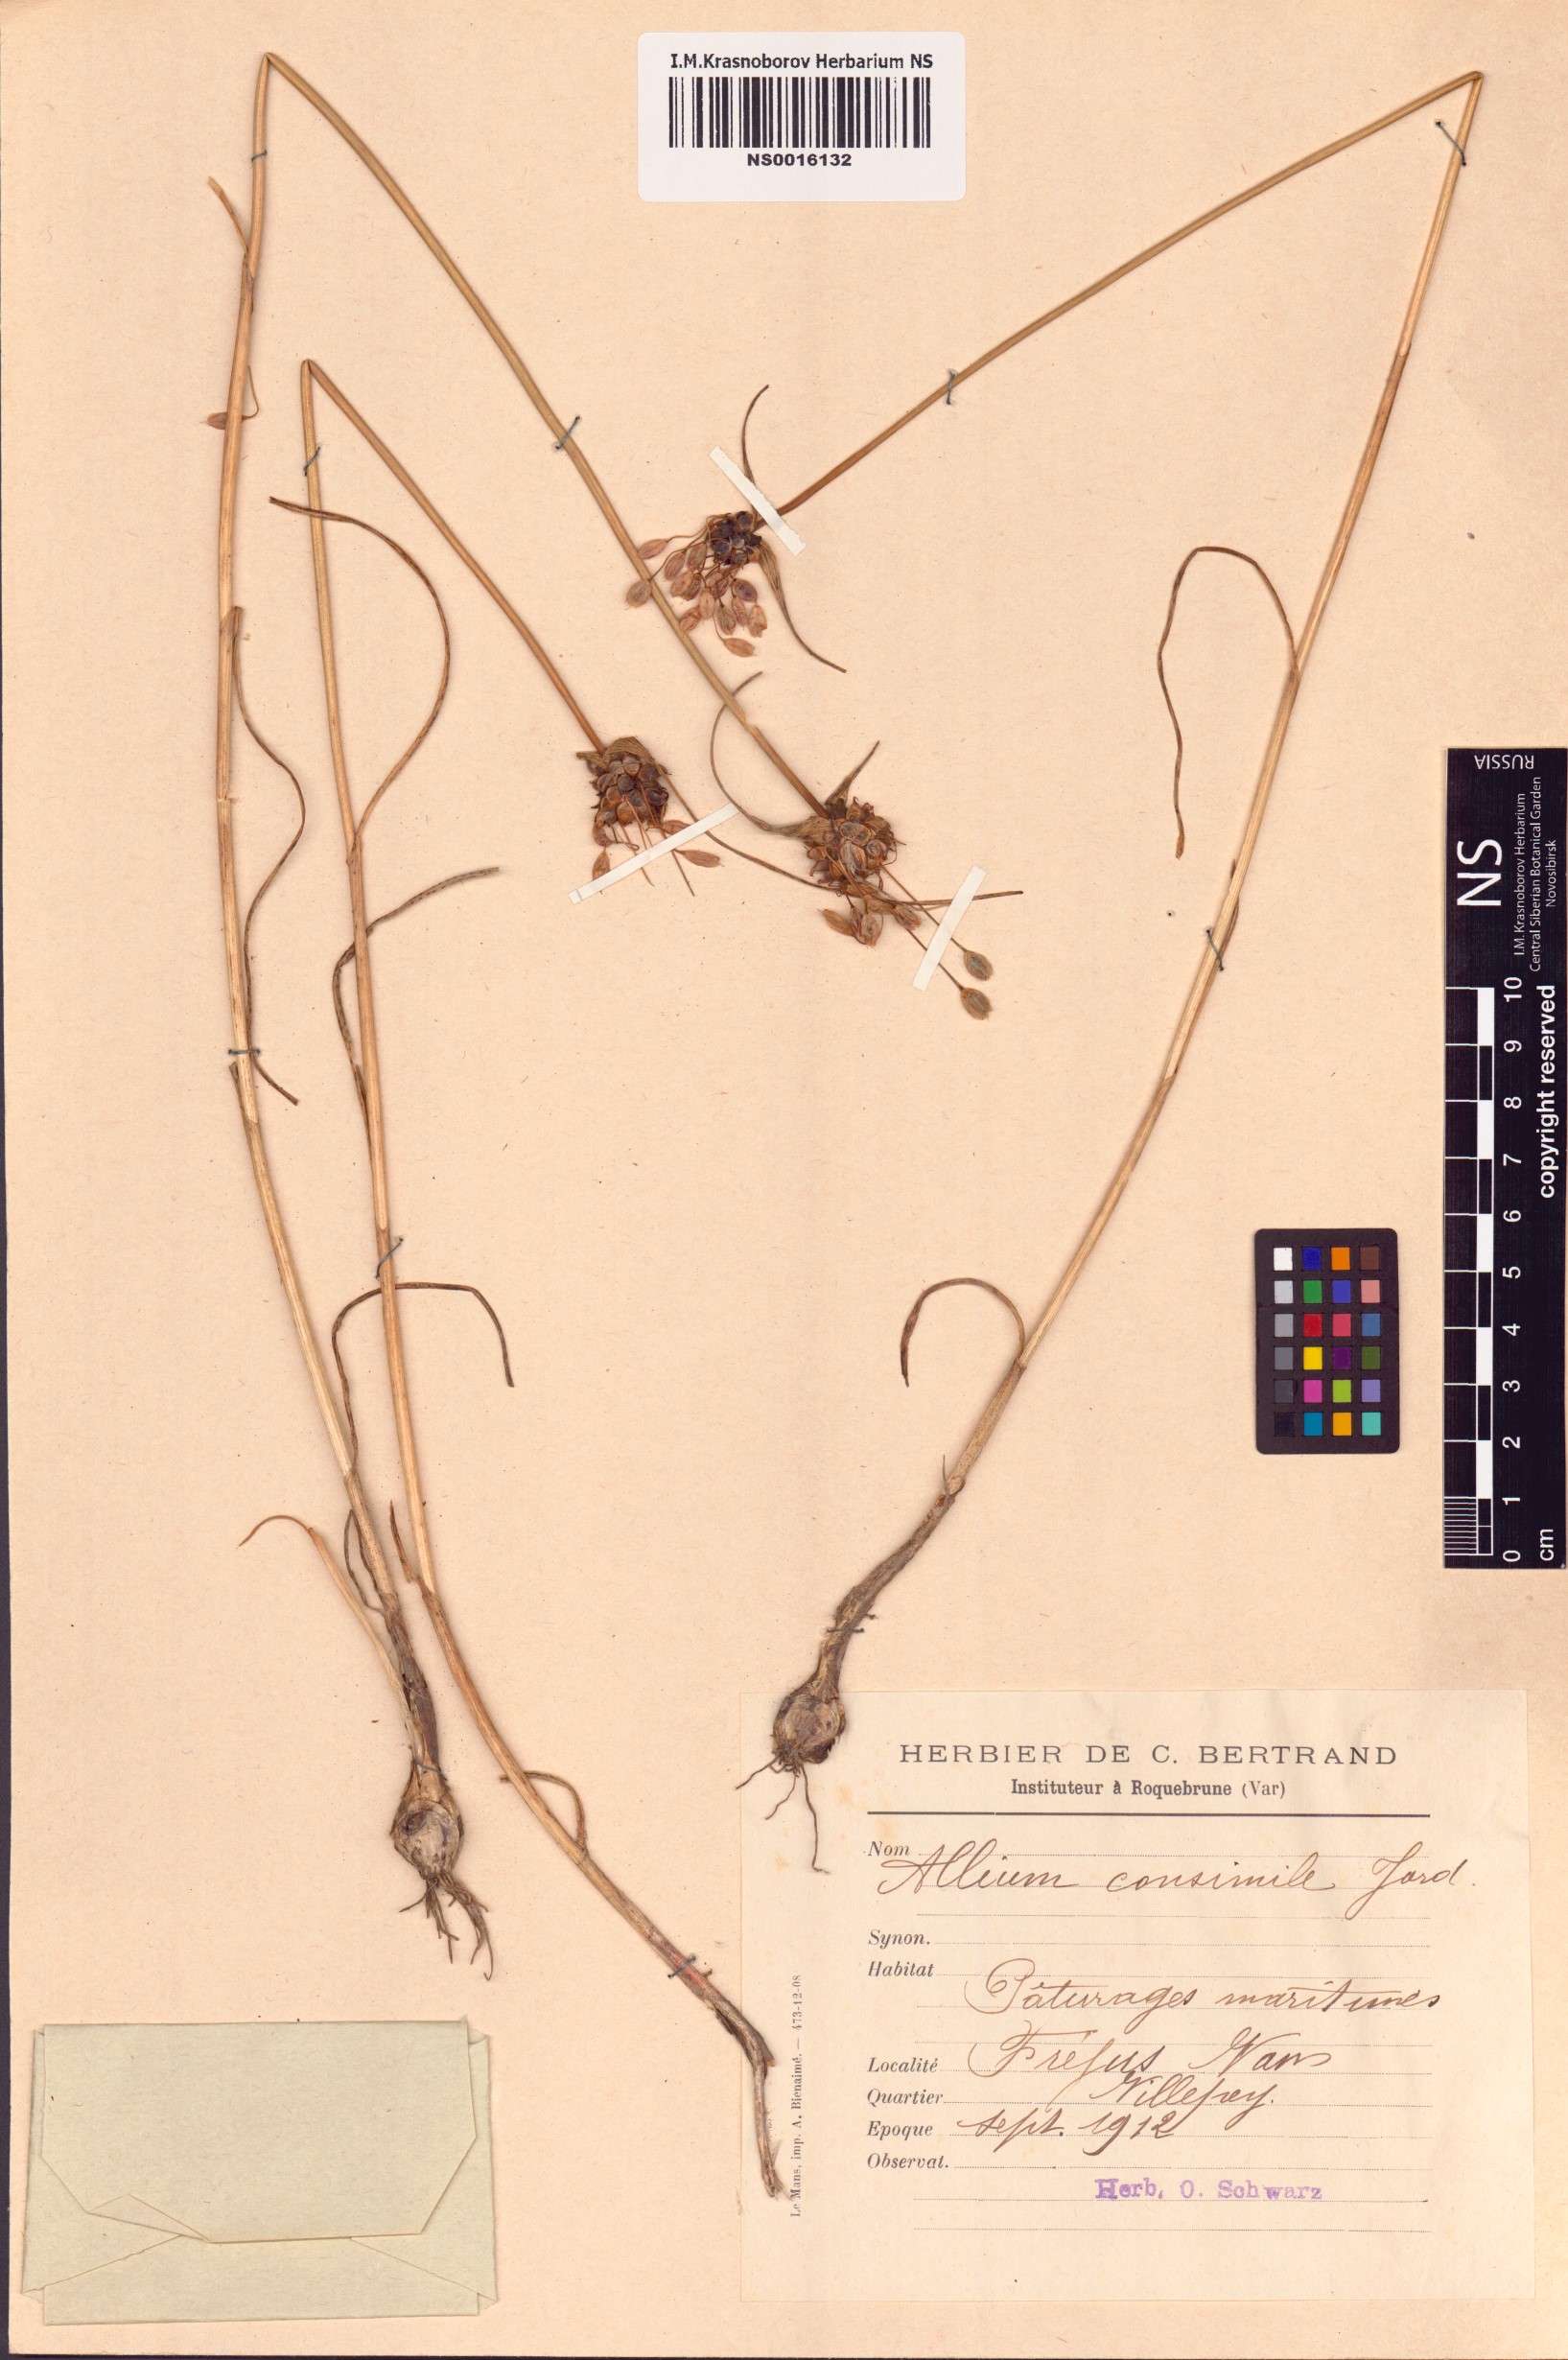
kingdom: Plantae
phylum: Tracheophyta
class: Liliopsida
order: Asparagales
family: Amaryllidaceae
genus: Allium
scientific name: Allium carinatum
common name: Keeled garlic
